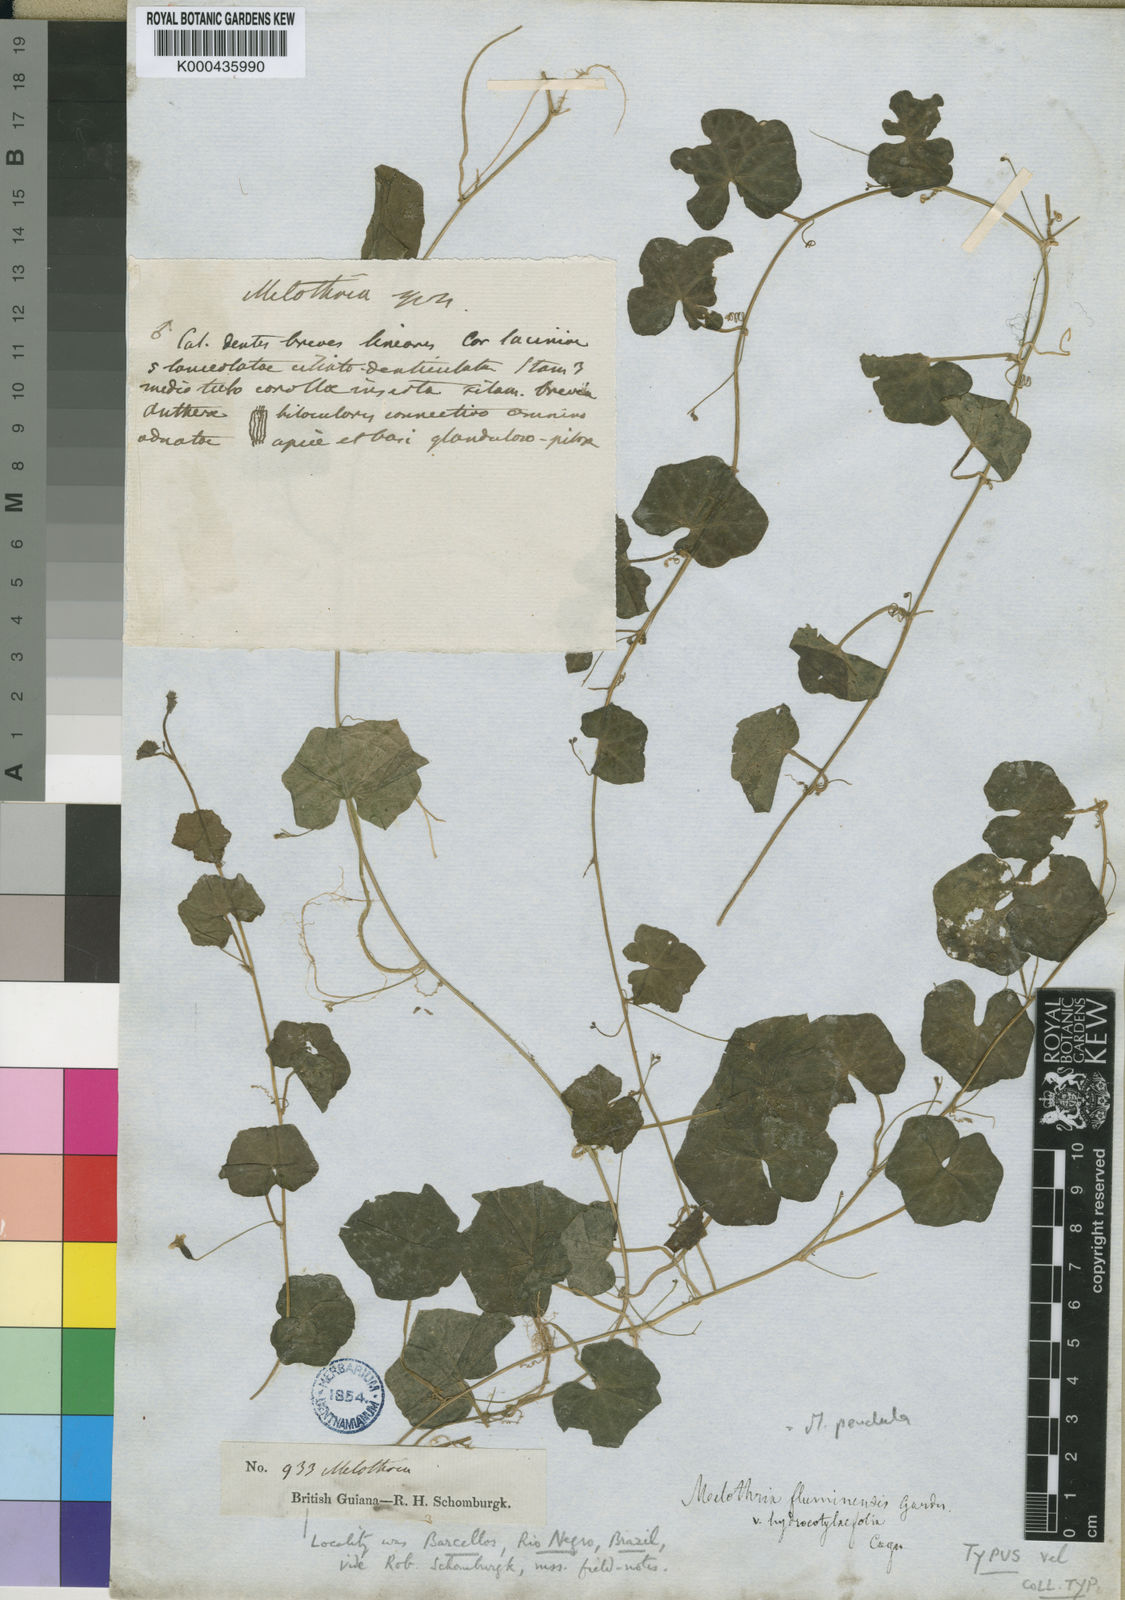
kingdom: Plantae
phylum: Tracheophyta
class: Magnoliopsida
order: Cucurbitales
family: Cucurbitaceae
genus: Melothria
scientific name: Melothria pendula
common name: Creeping-cucumber
